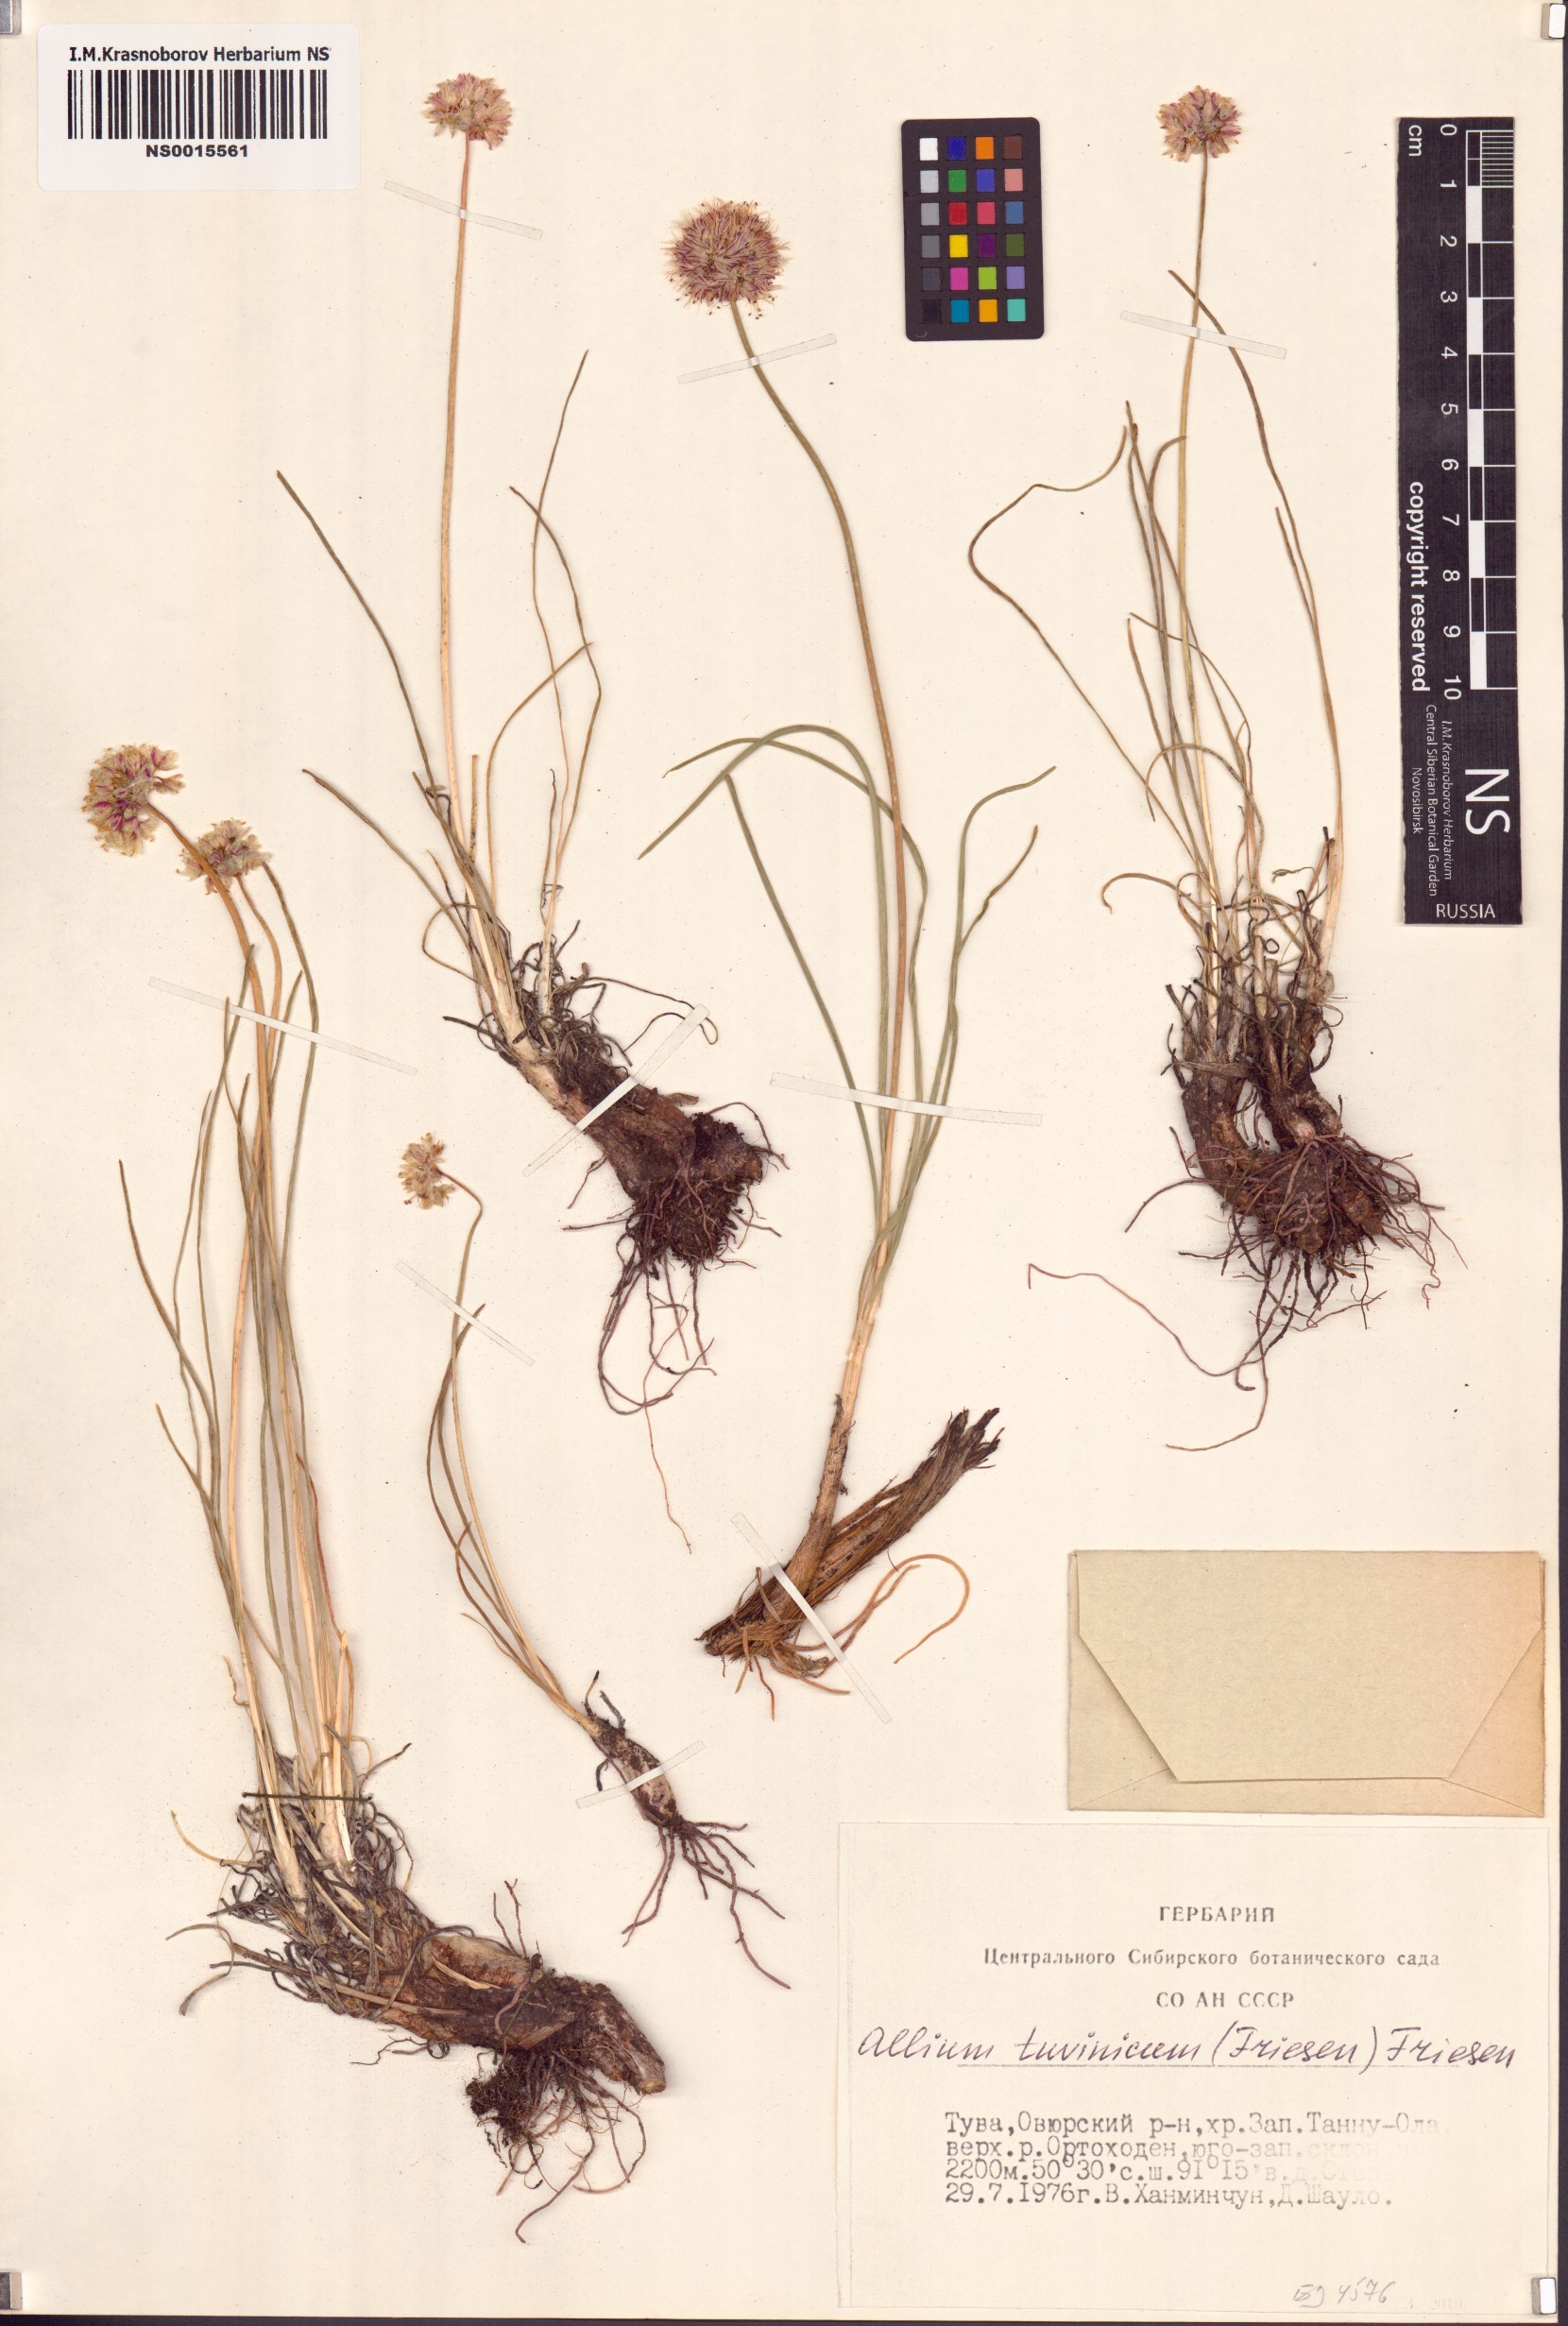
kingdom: Plantae
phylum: Tracheophyta
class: Liliopsida
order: Asparagales
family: Amaryllidaceae
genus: Allium
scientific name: Allium tuvinicum
